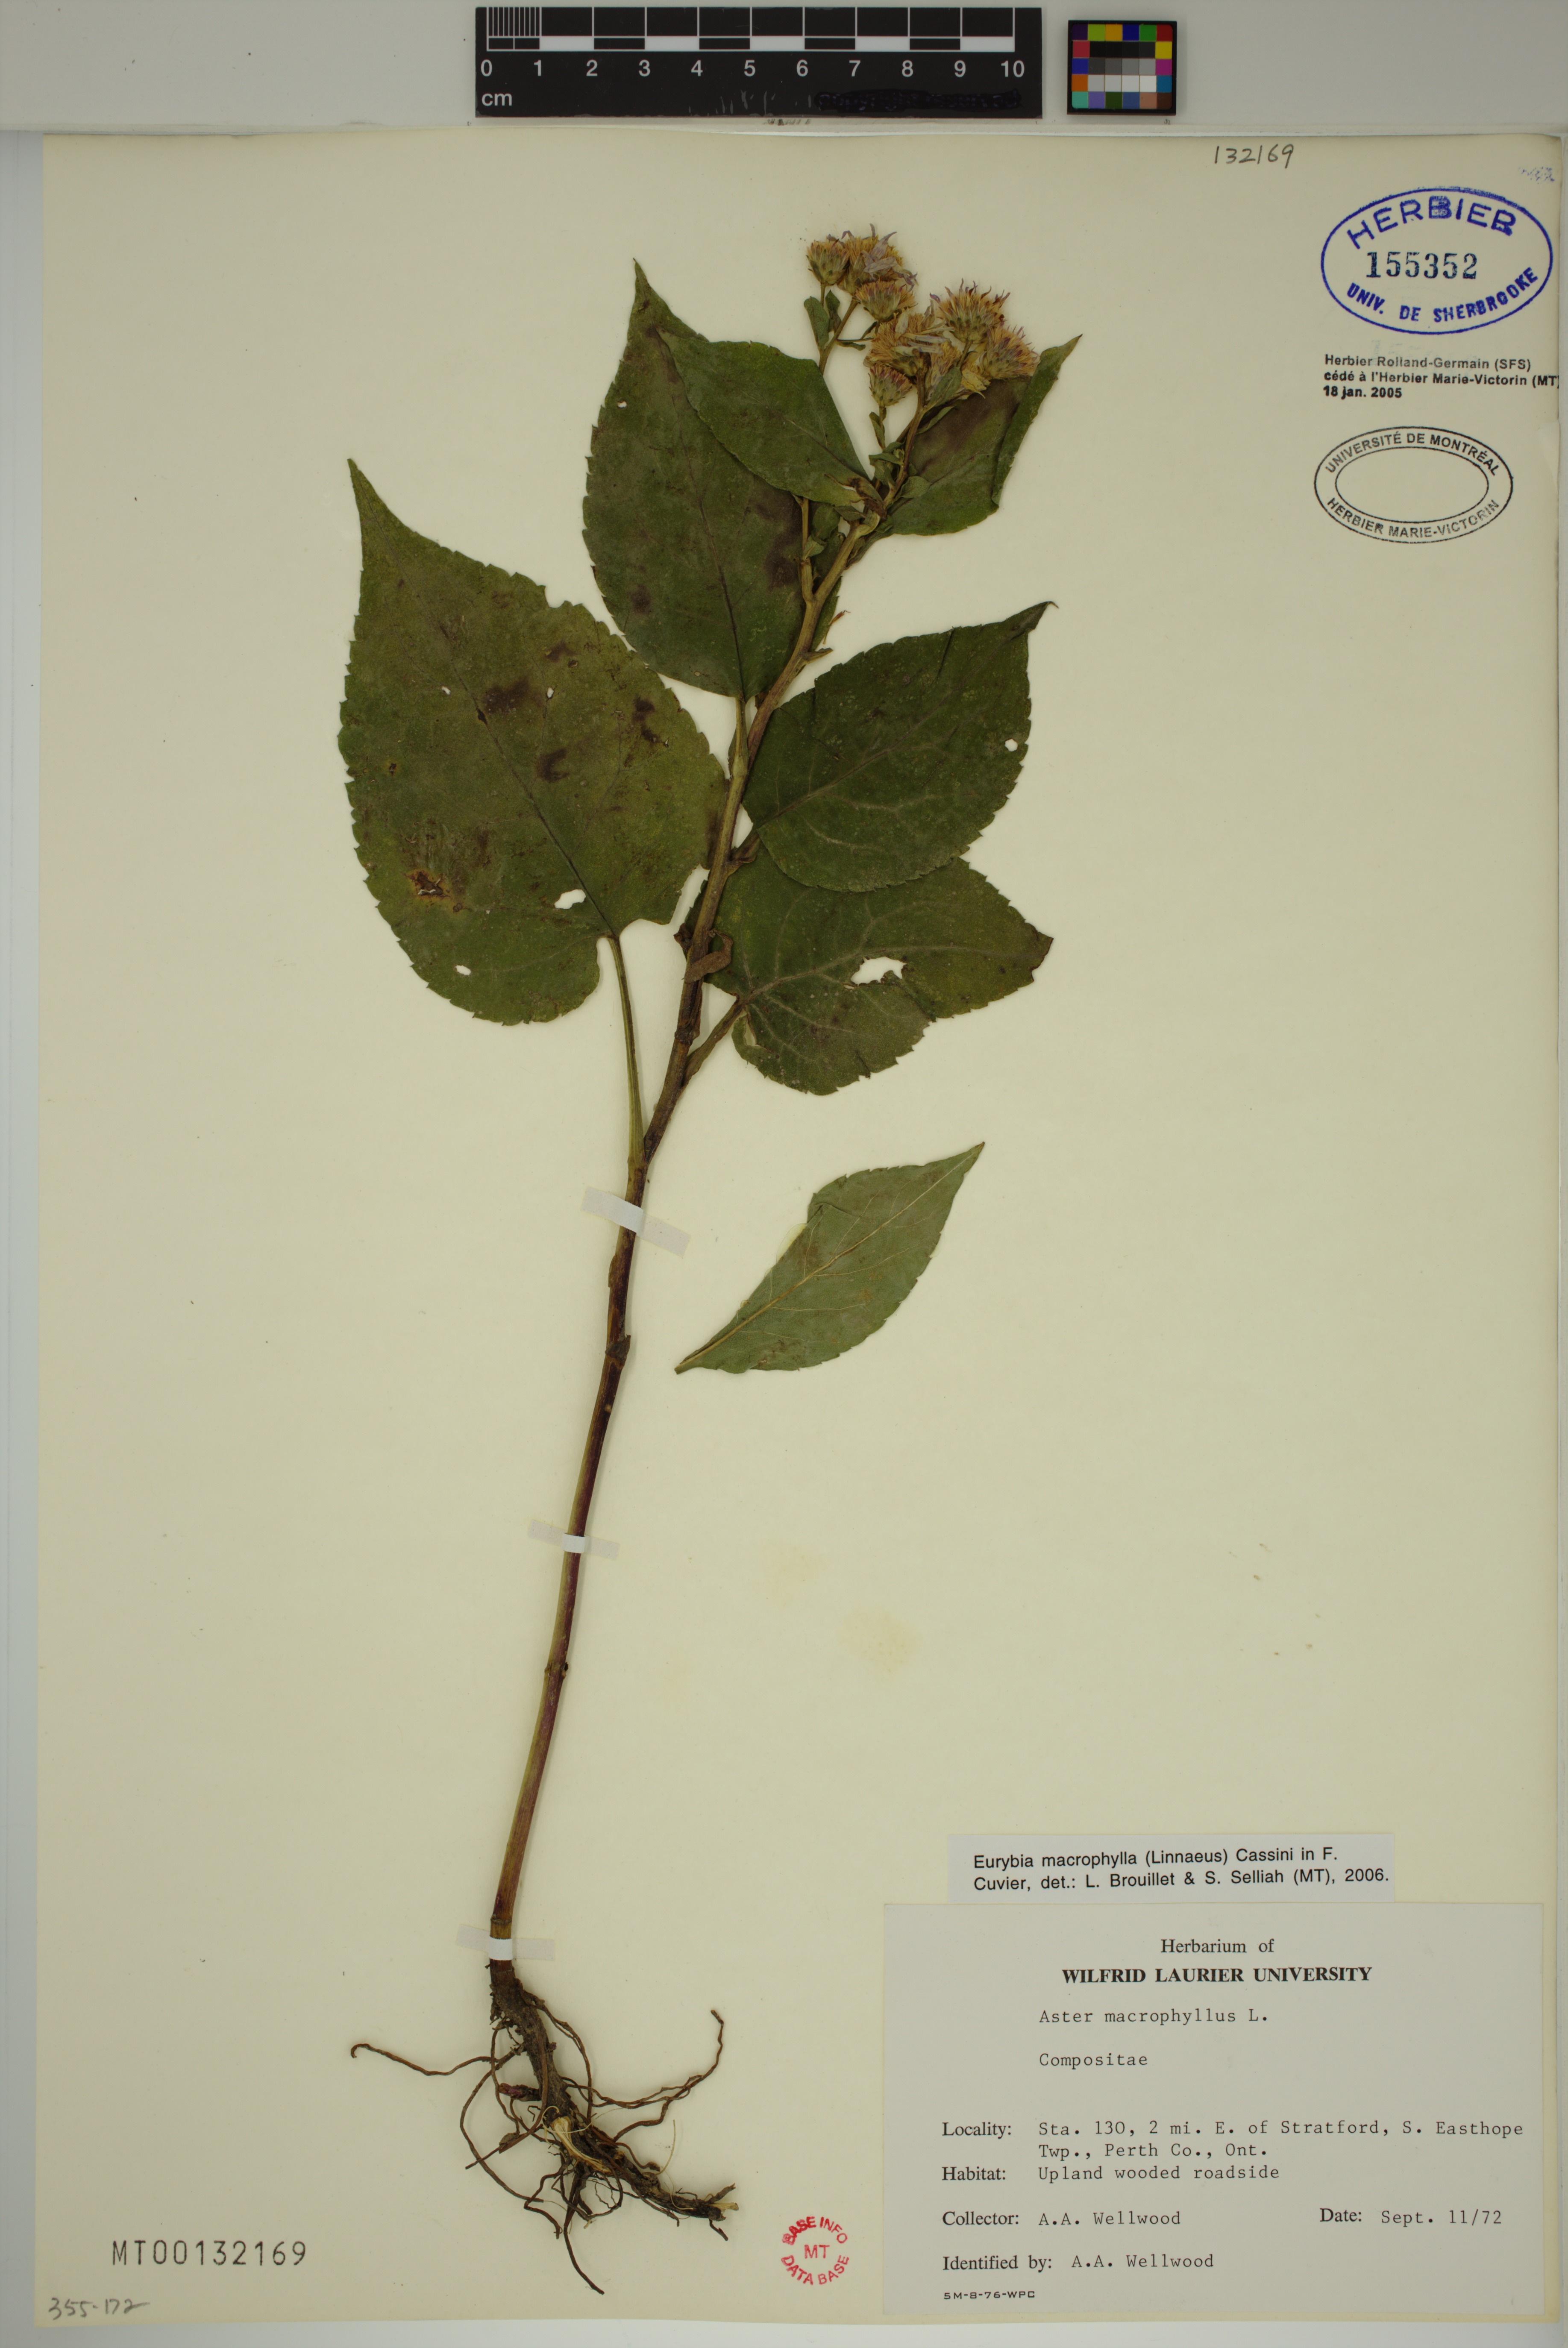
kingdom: Plantae
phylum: Tracheophyta
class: Magnoliopsida
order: Asterales
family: Asteraceae
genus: Eurybia
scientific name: Eurybia macrophylla
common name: Big-leaved aster
